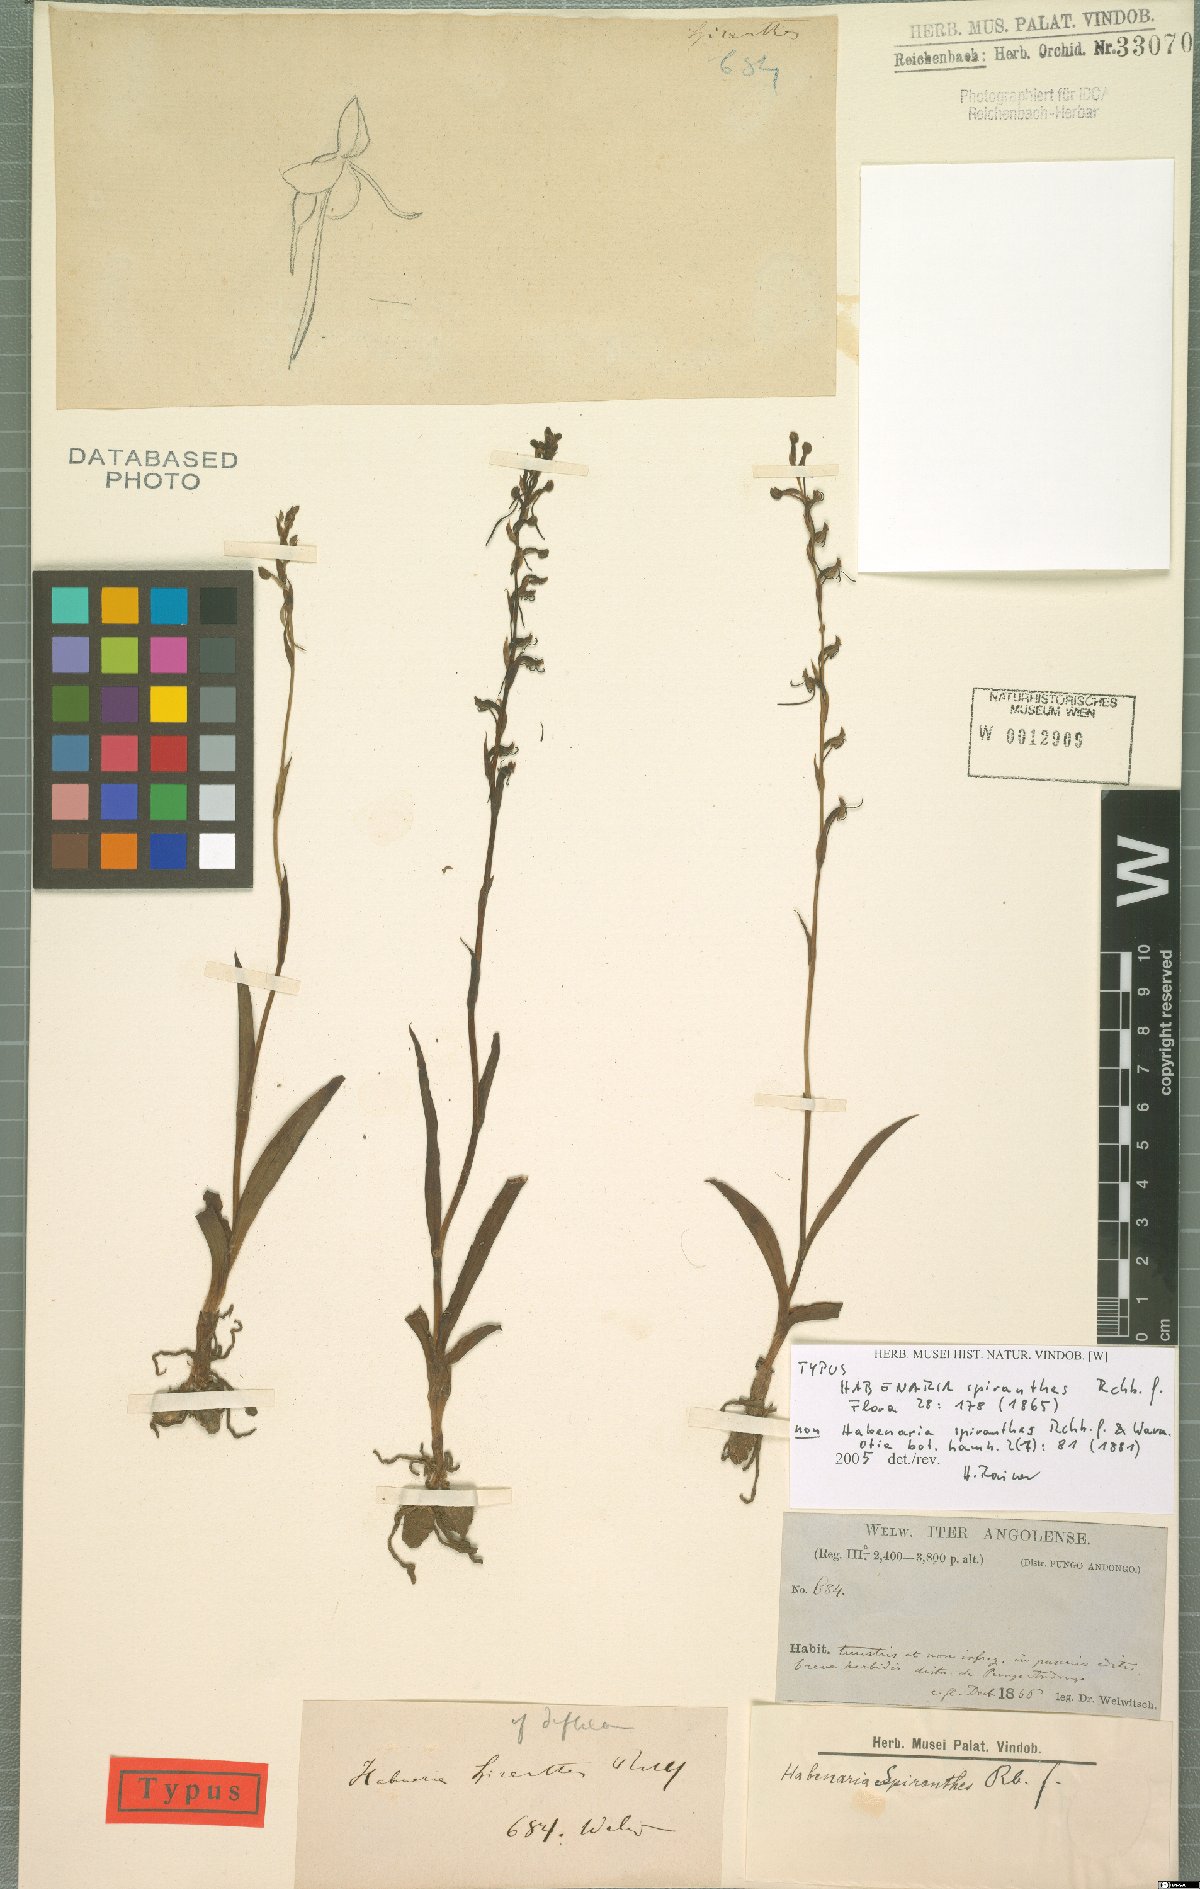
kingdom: Plantae
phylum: Tracheophyta
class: Liliopsida
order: Asparagales
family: Orchidaceae
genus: Habenaria
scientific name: Habenaria
